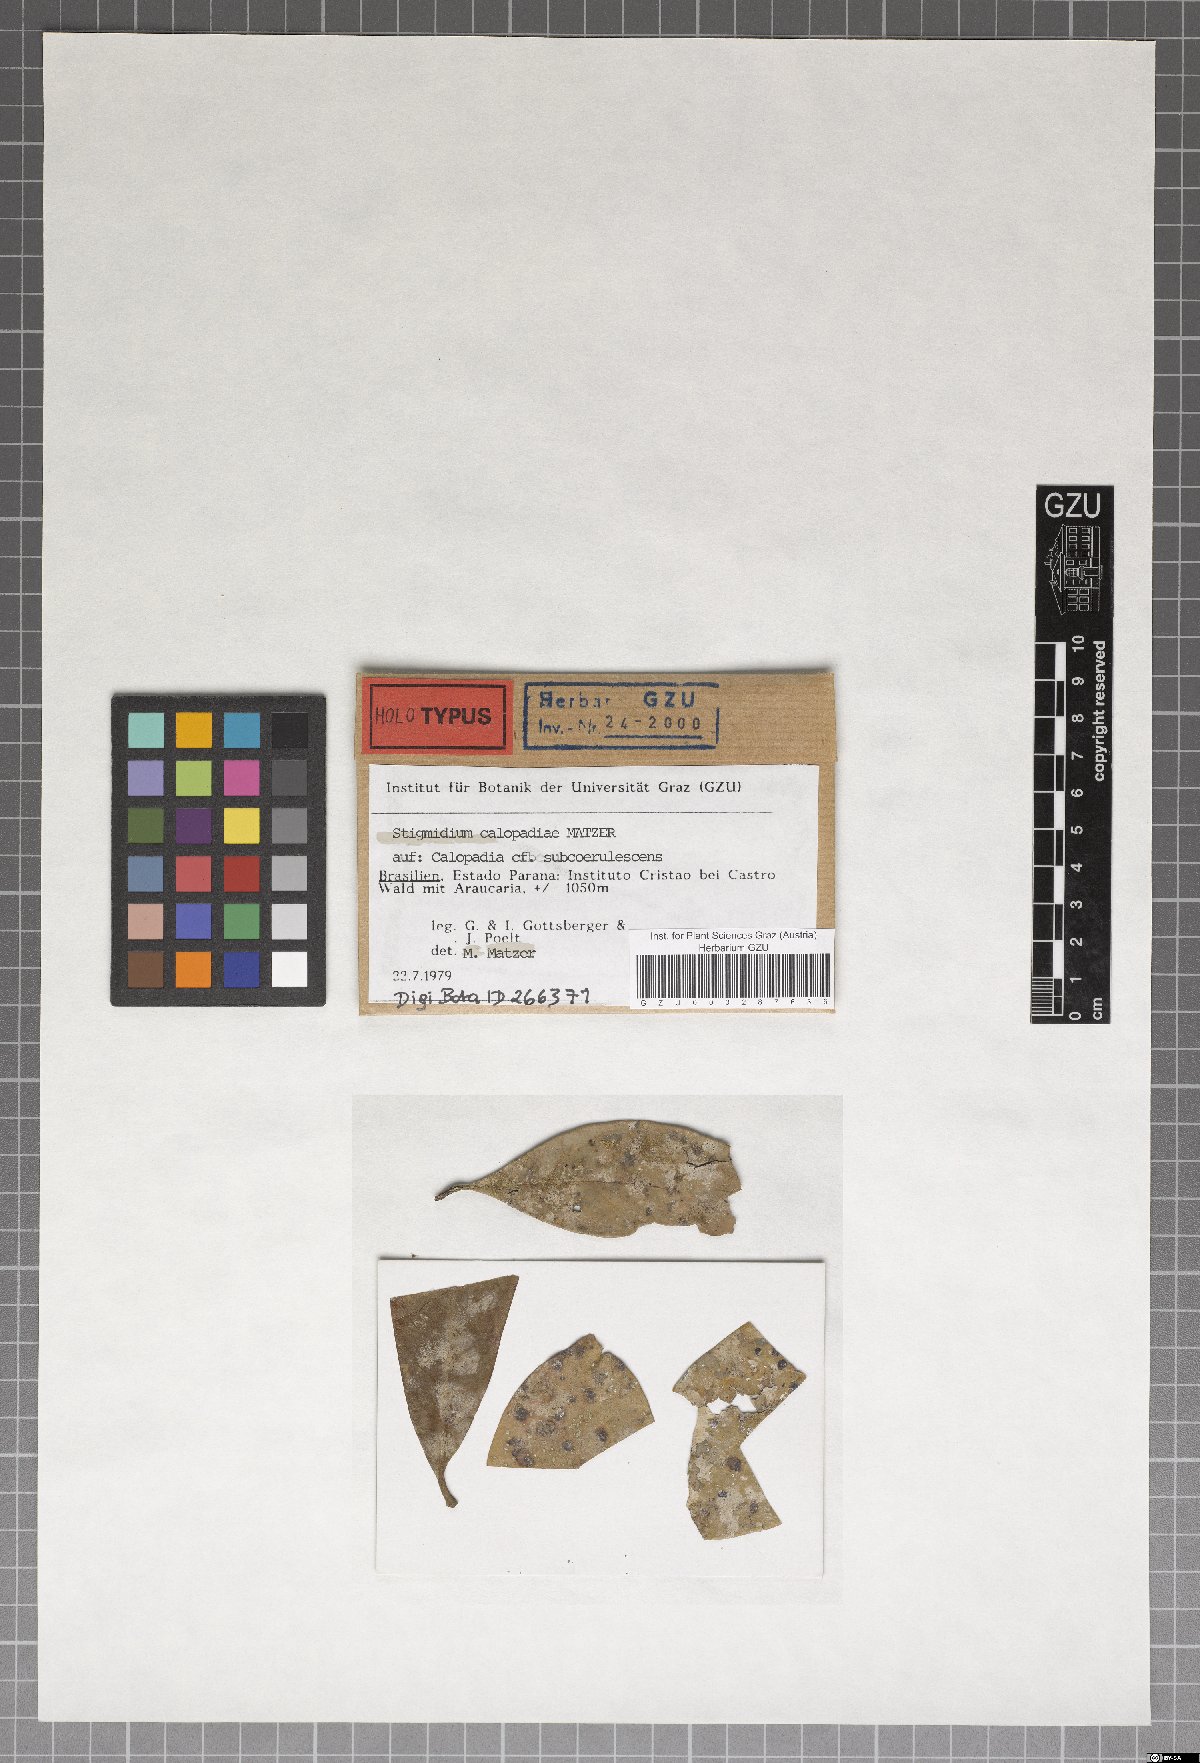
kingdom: Fungi
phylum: Ascomycota
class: Dothideomycetes
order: Mycosphaerellales
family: Mycosphaerellaceae
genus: Stigmidium
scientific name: Stigmidium calopadiae
